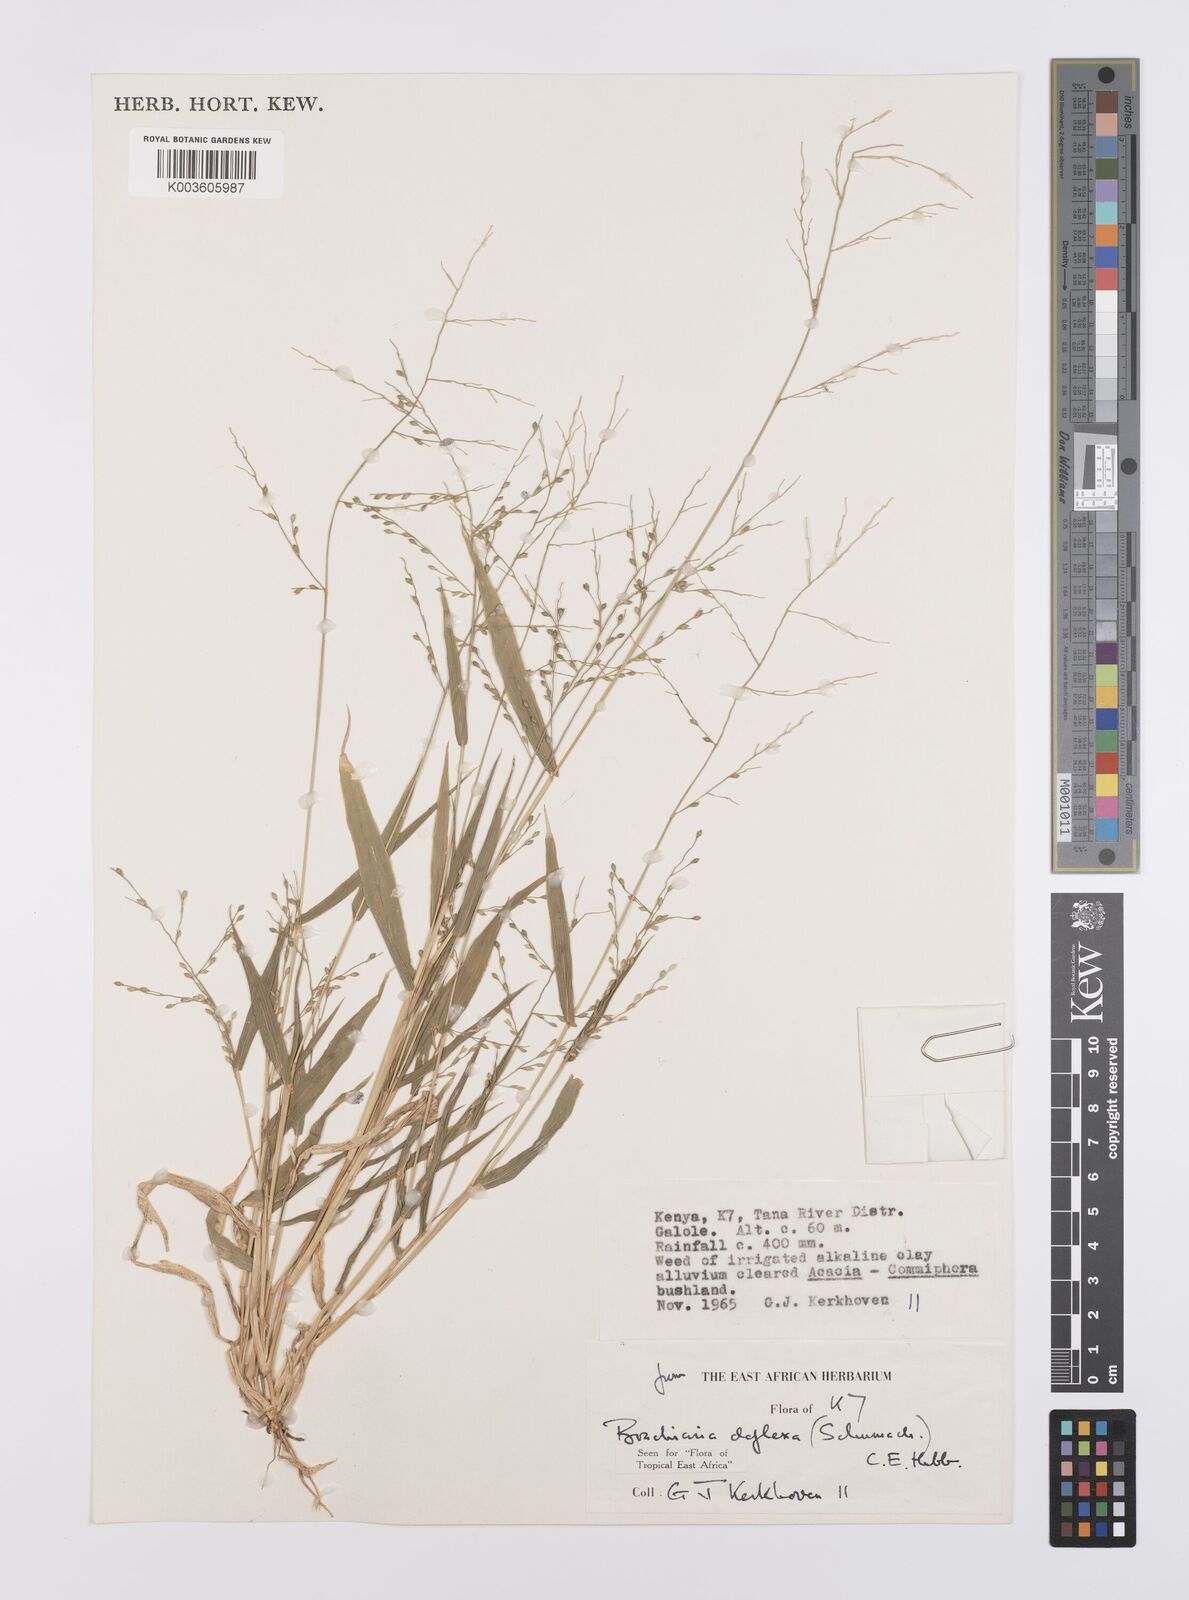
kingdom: Plantae
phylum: Tracheophyta
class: Liliopsida
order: Poales
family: Poaceae
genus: Urochloa
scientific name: Urochloa deflexa
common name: Guinea millet
